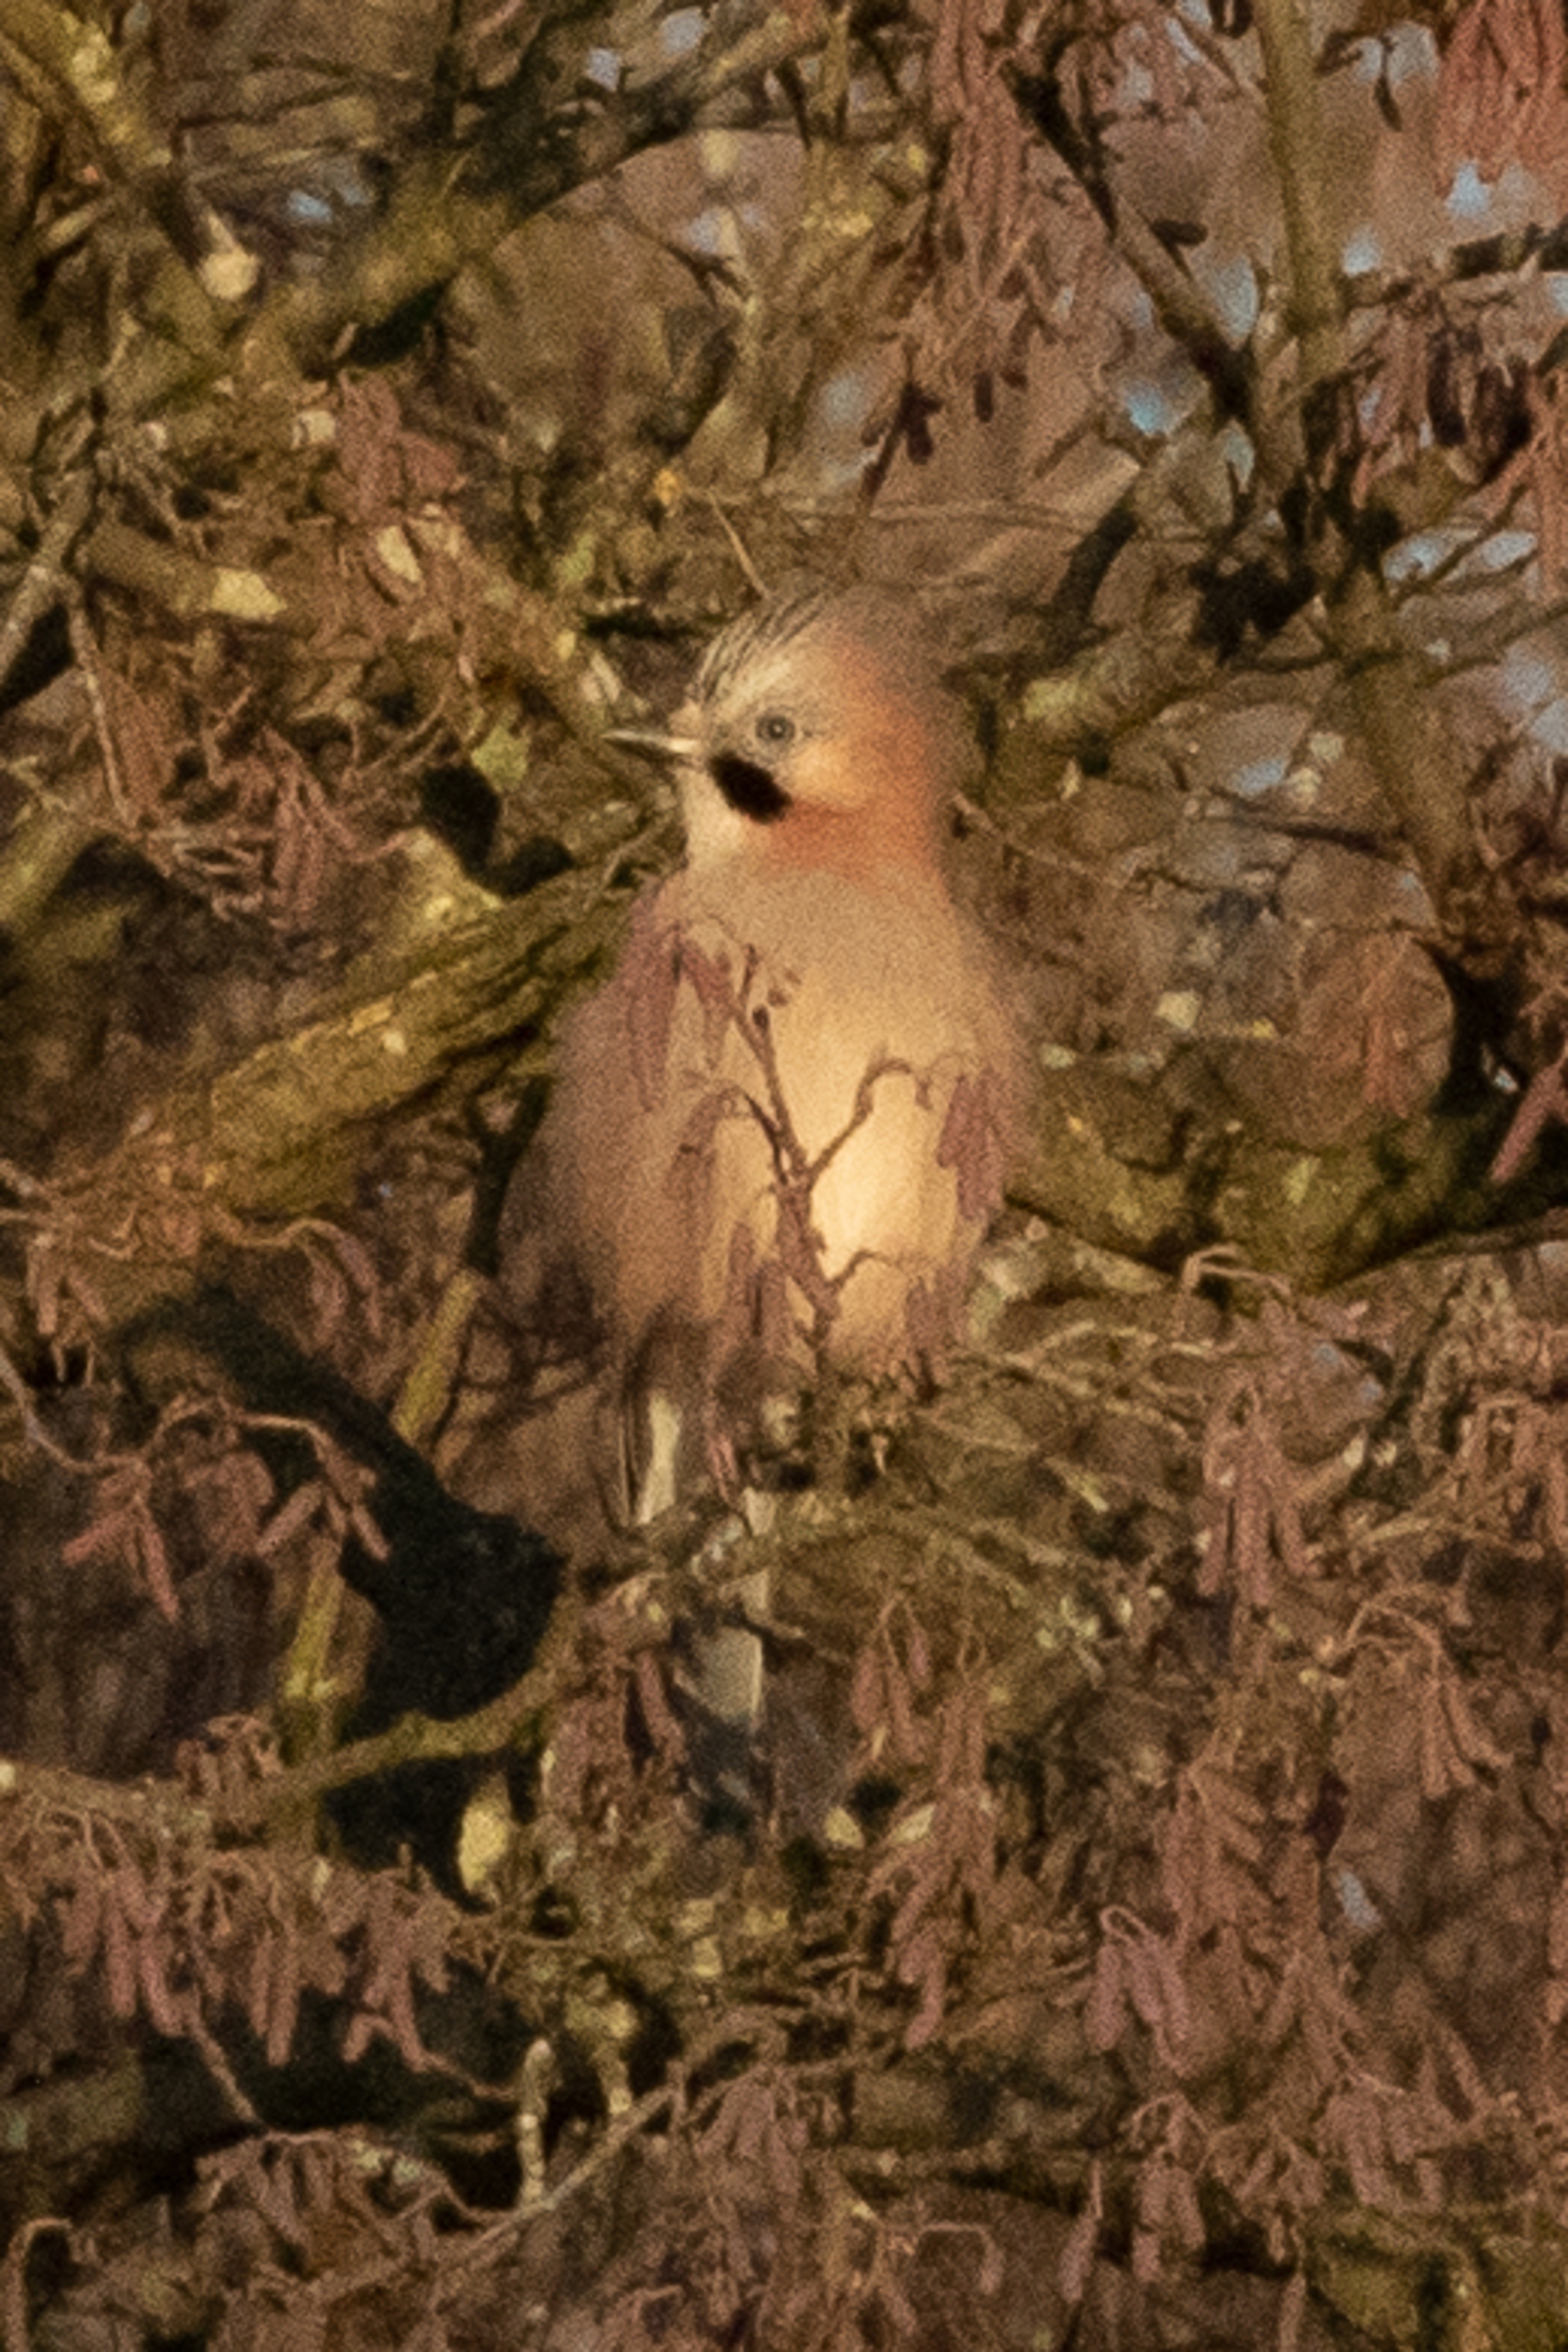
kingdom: Animalia
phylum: Chordata
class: Aves
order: Passeriformes
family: Corvidae
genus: Garrulus
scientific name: Garrulus glandarius
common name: Skovskade
